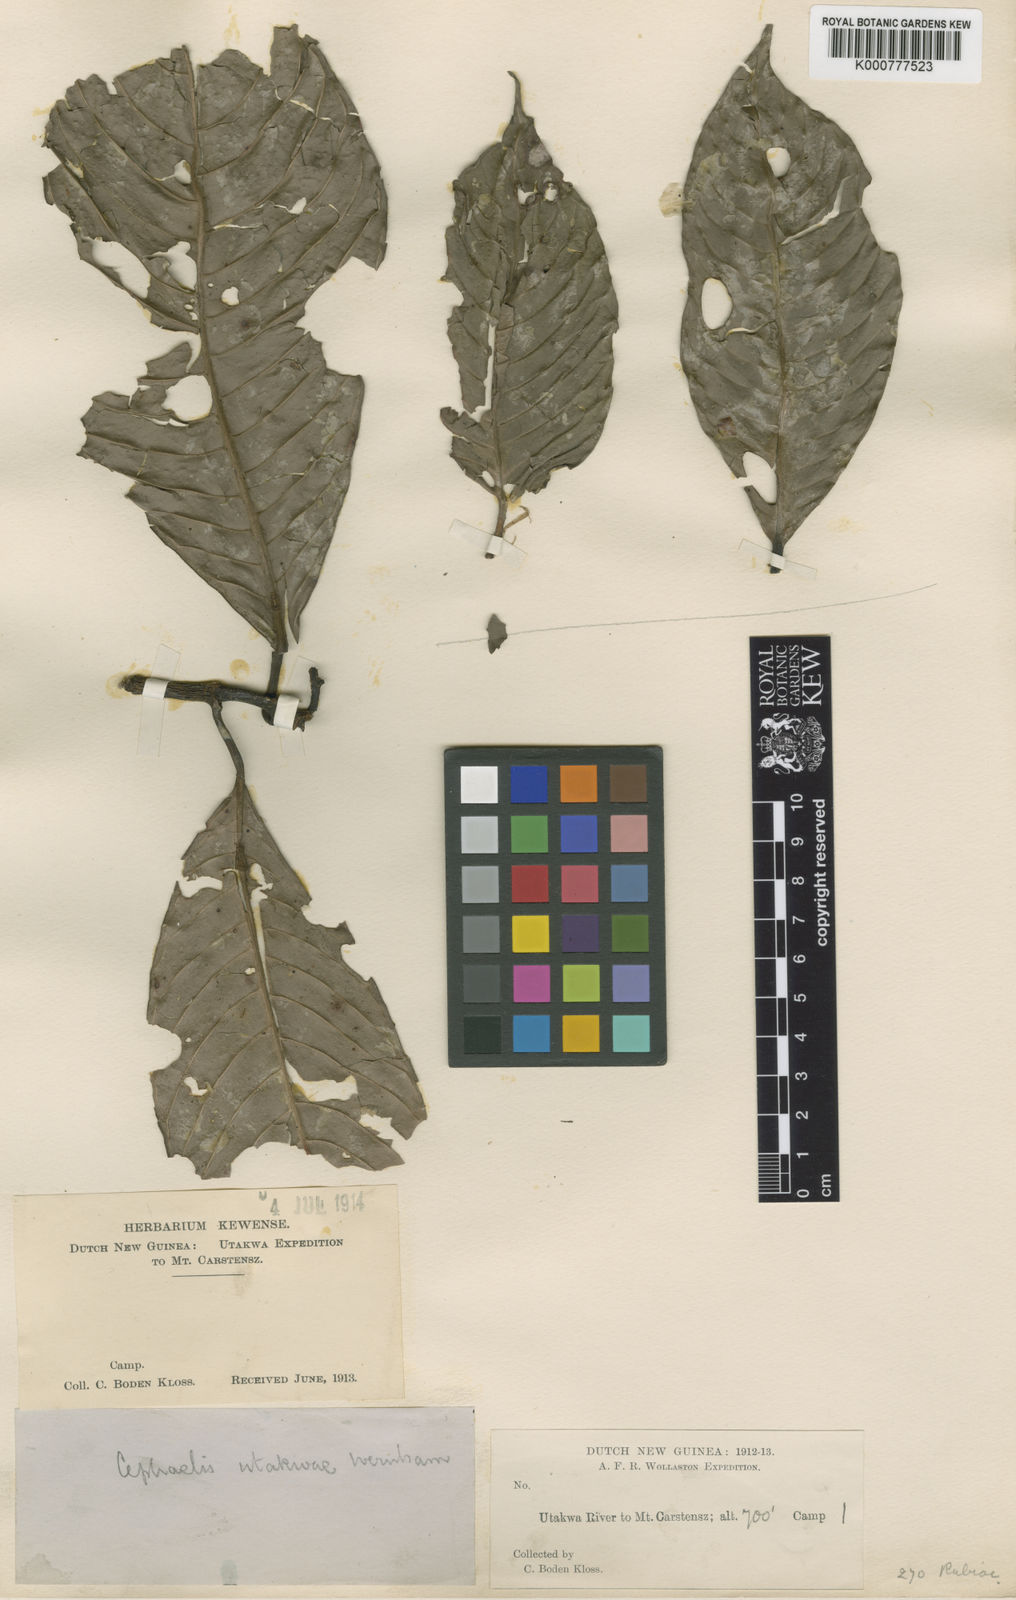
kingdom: Plantae
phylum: Tracheophyta
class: Magnoliopsida
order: Gentianales
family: Rubiaceae
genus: Psychotria
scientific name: Psychotria utakwensis
